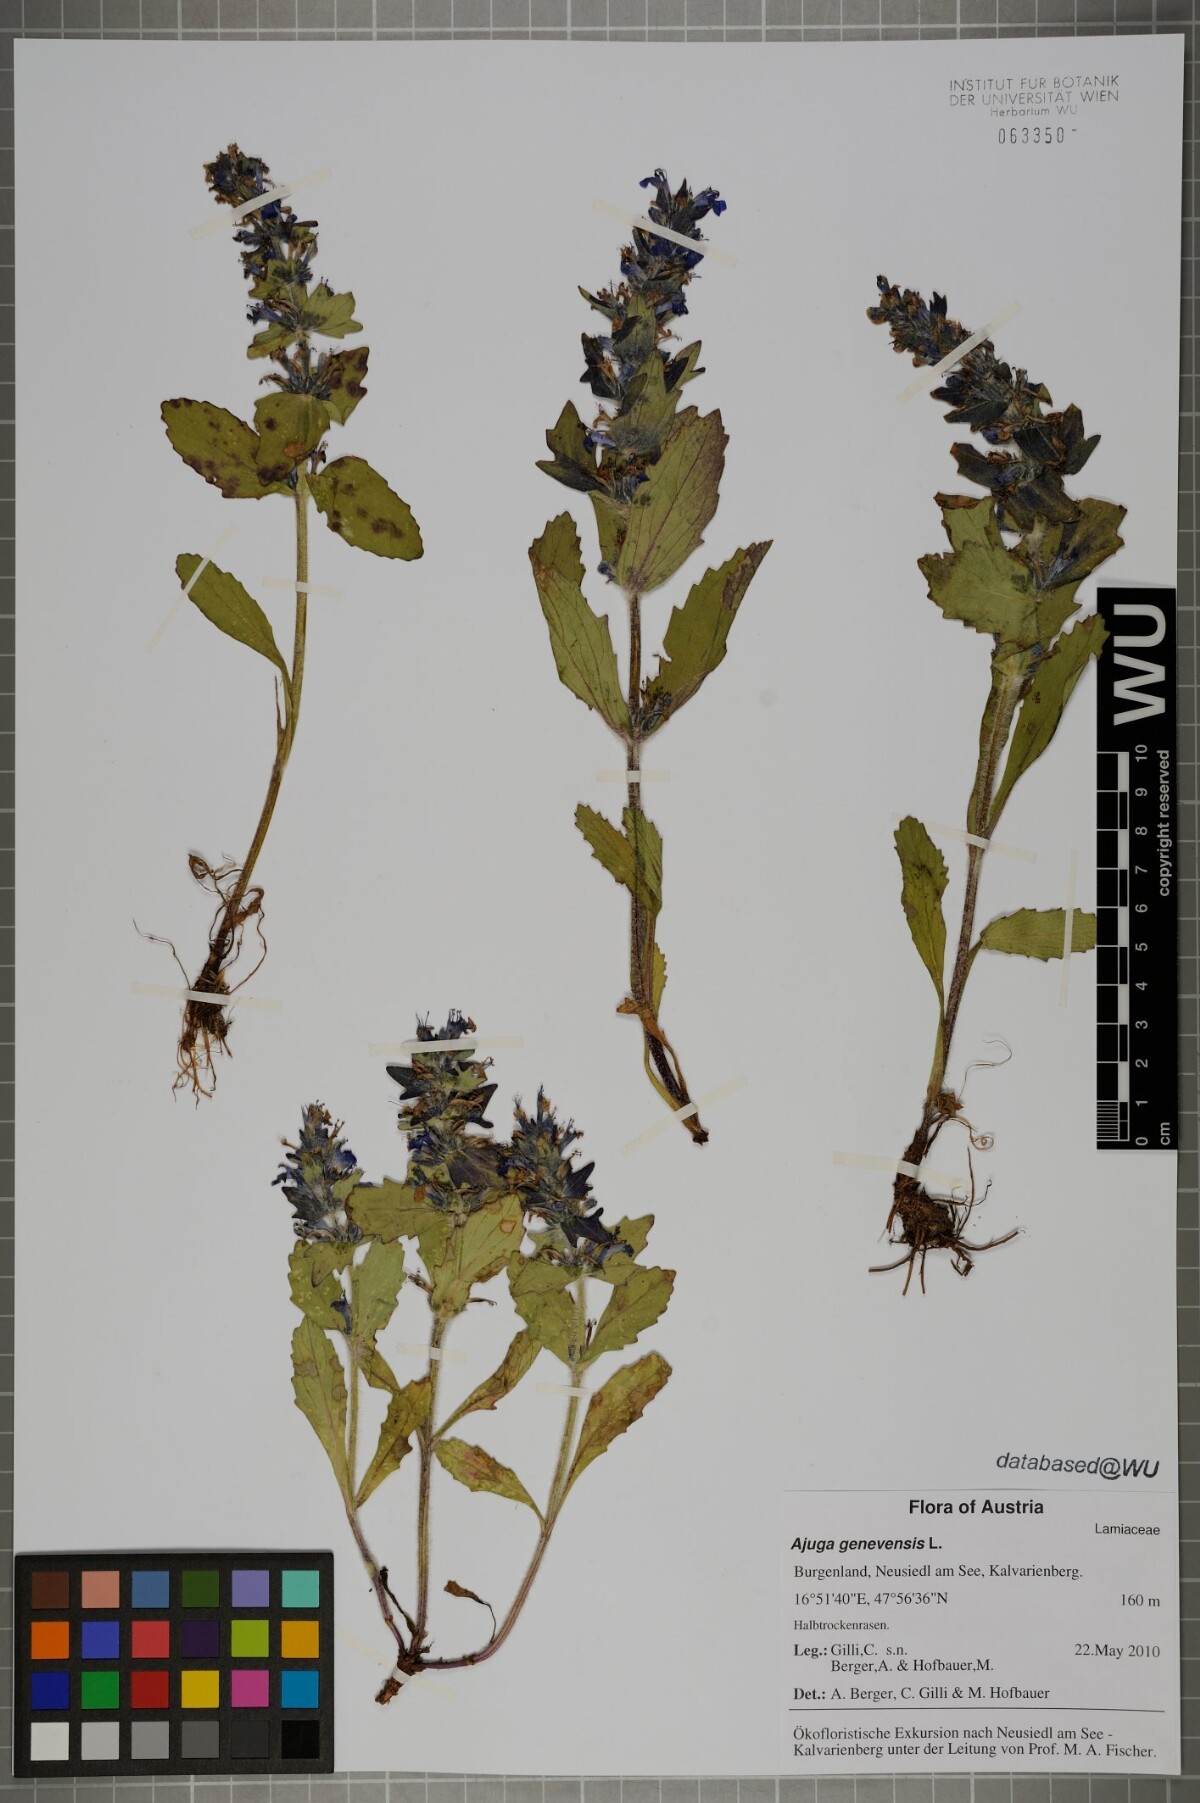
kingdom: Plantae
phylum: Tracheophyta
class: Magnoliopsida
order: Lamiales
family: Lamiaceae
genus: Ajuga
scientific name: Ajuga genevensis
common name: Blue bugle
